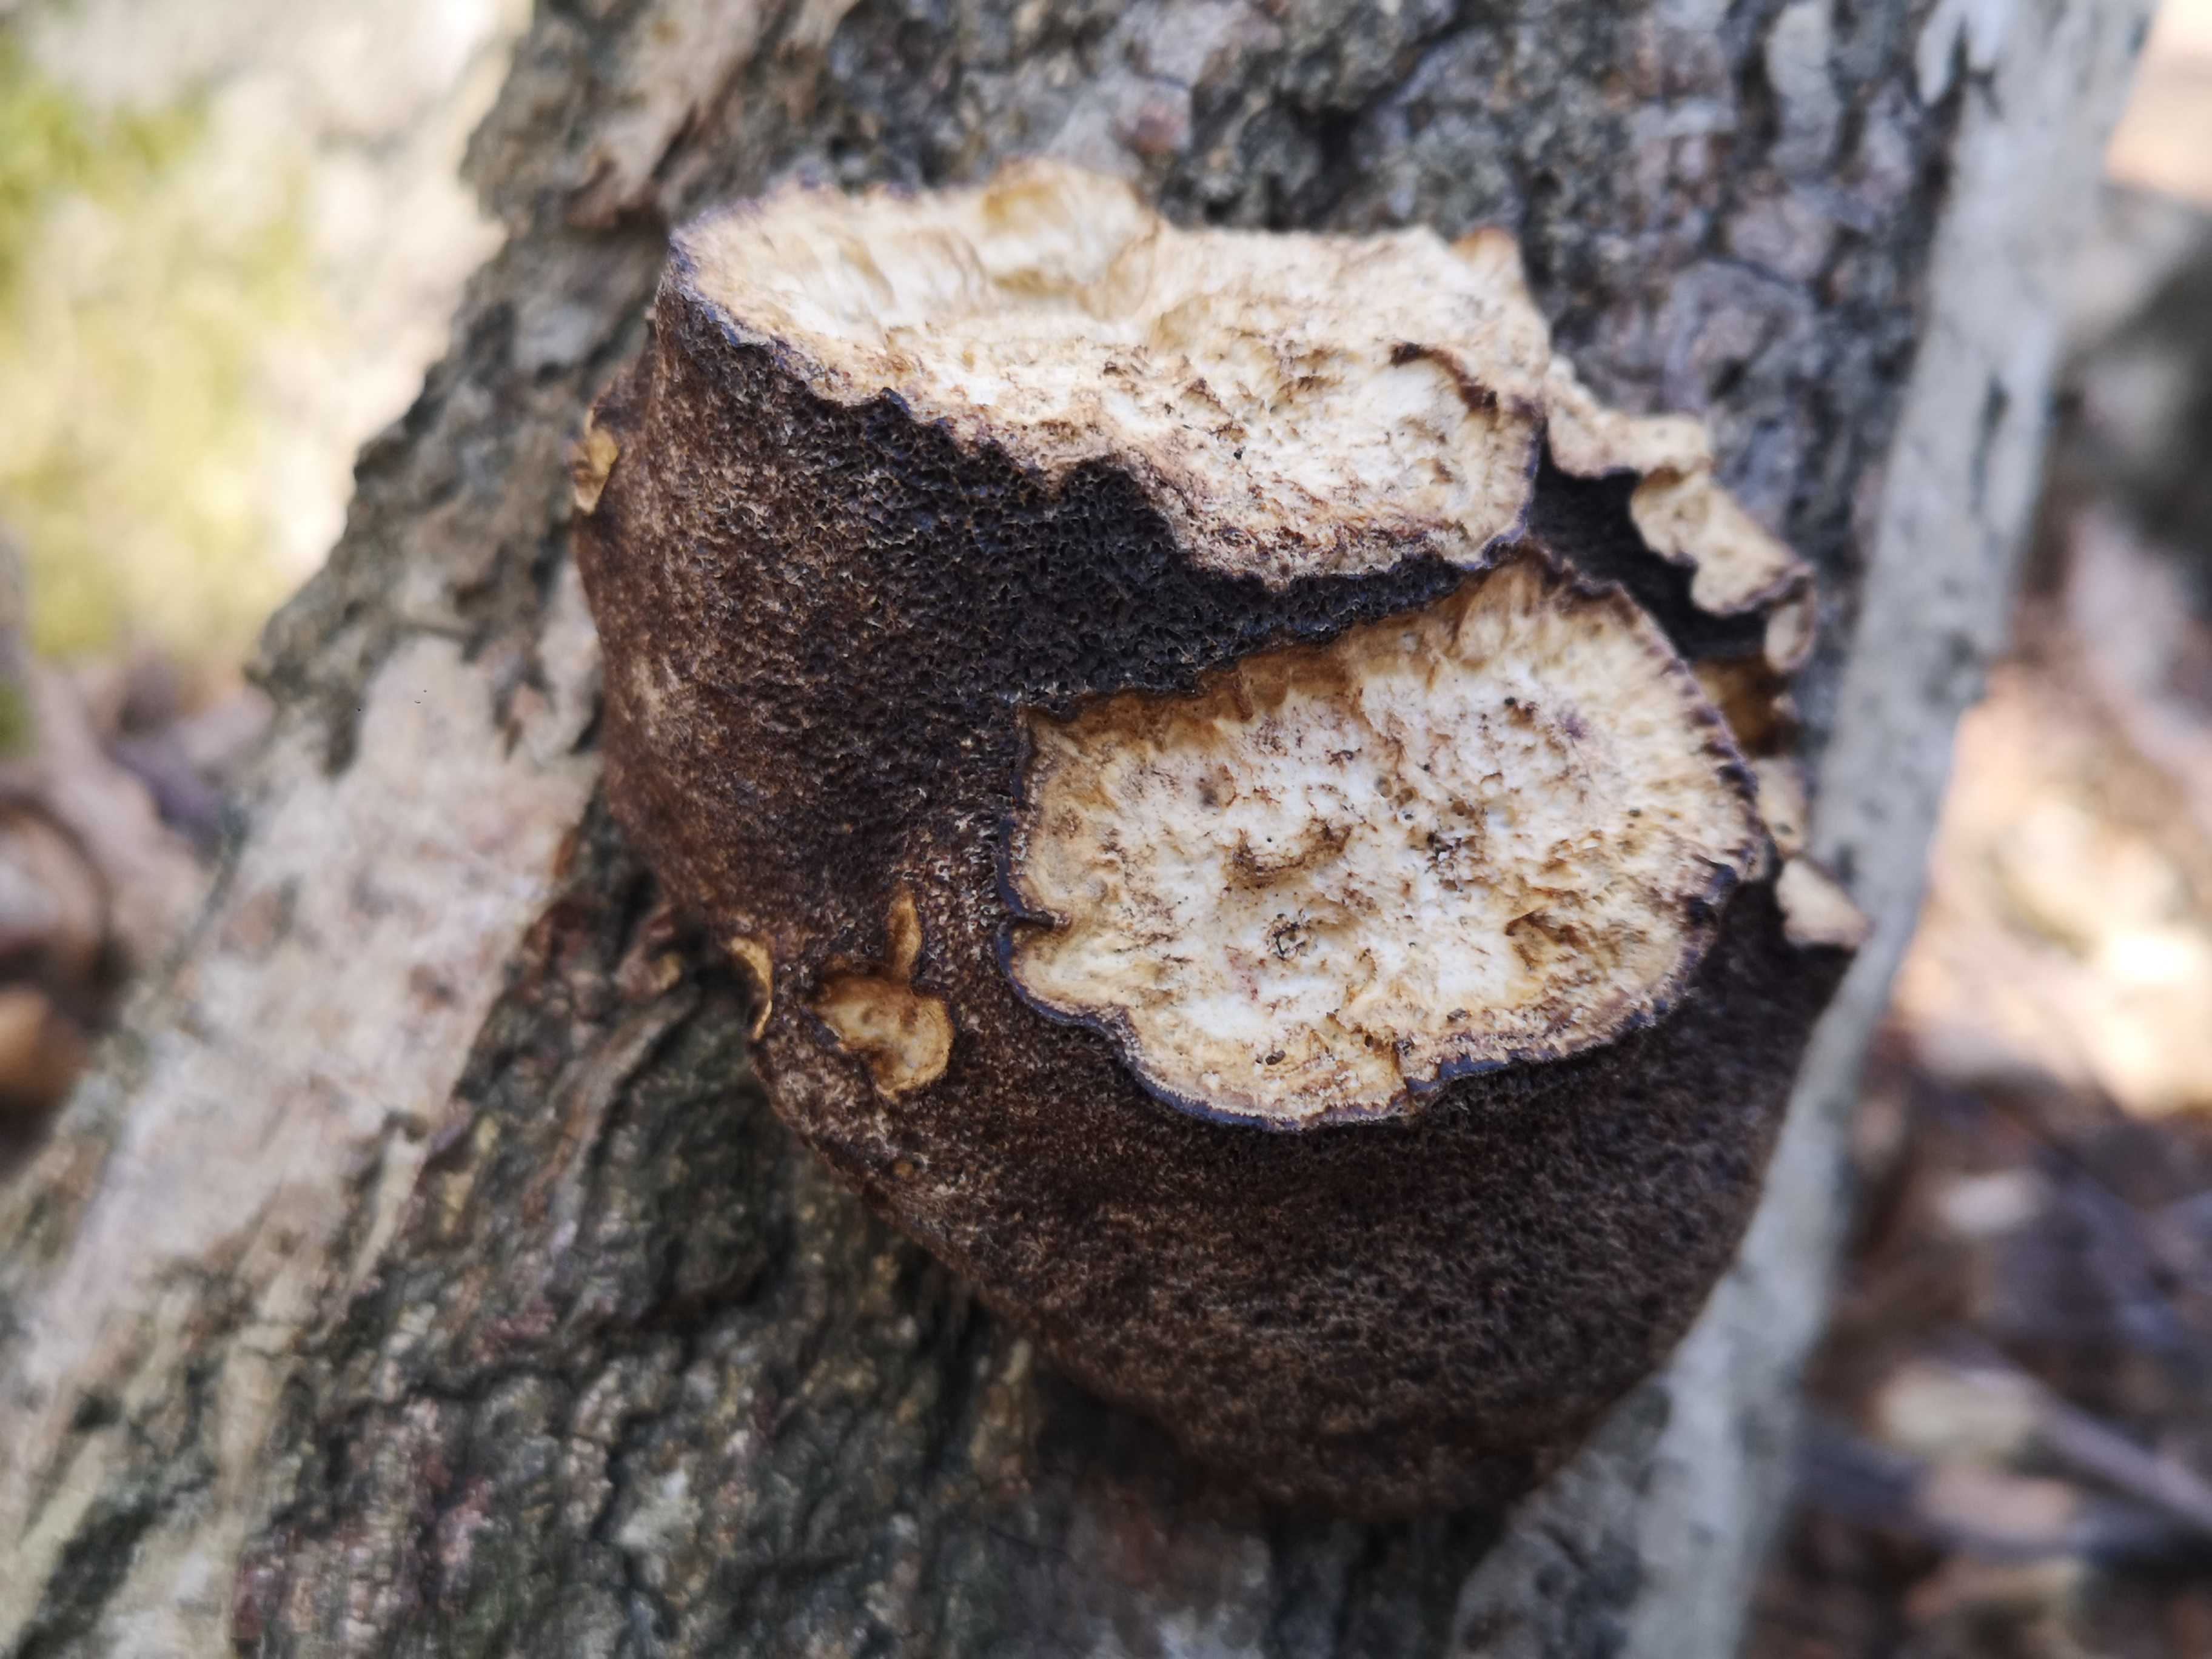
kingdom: Fungi
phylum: Basidiomycota
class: Agaricomycetes
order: Polyporales
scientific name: Polyporales
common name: poresvampordenen
